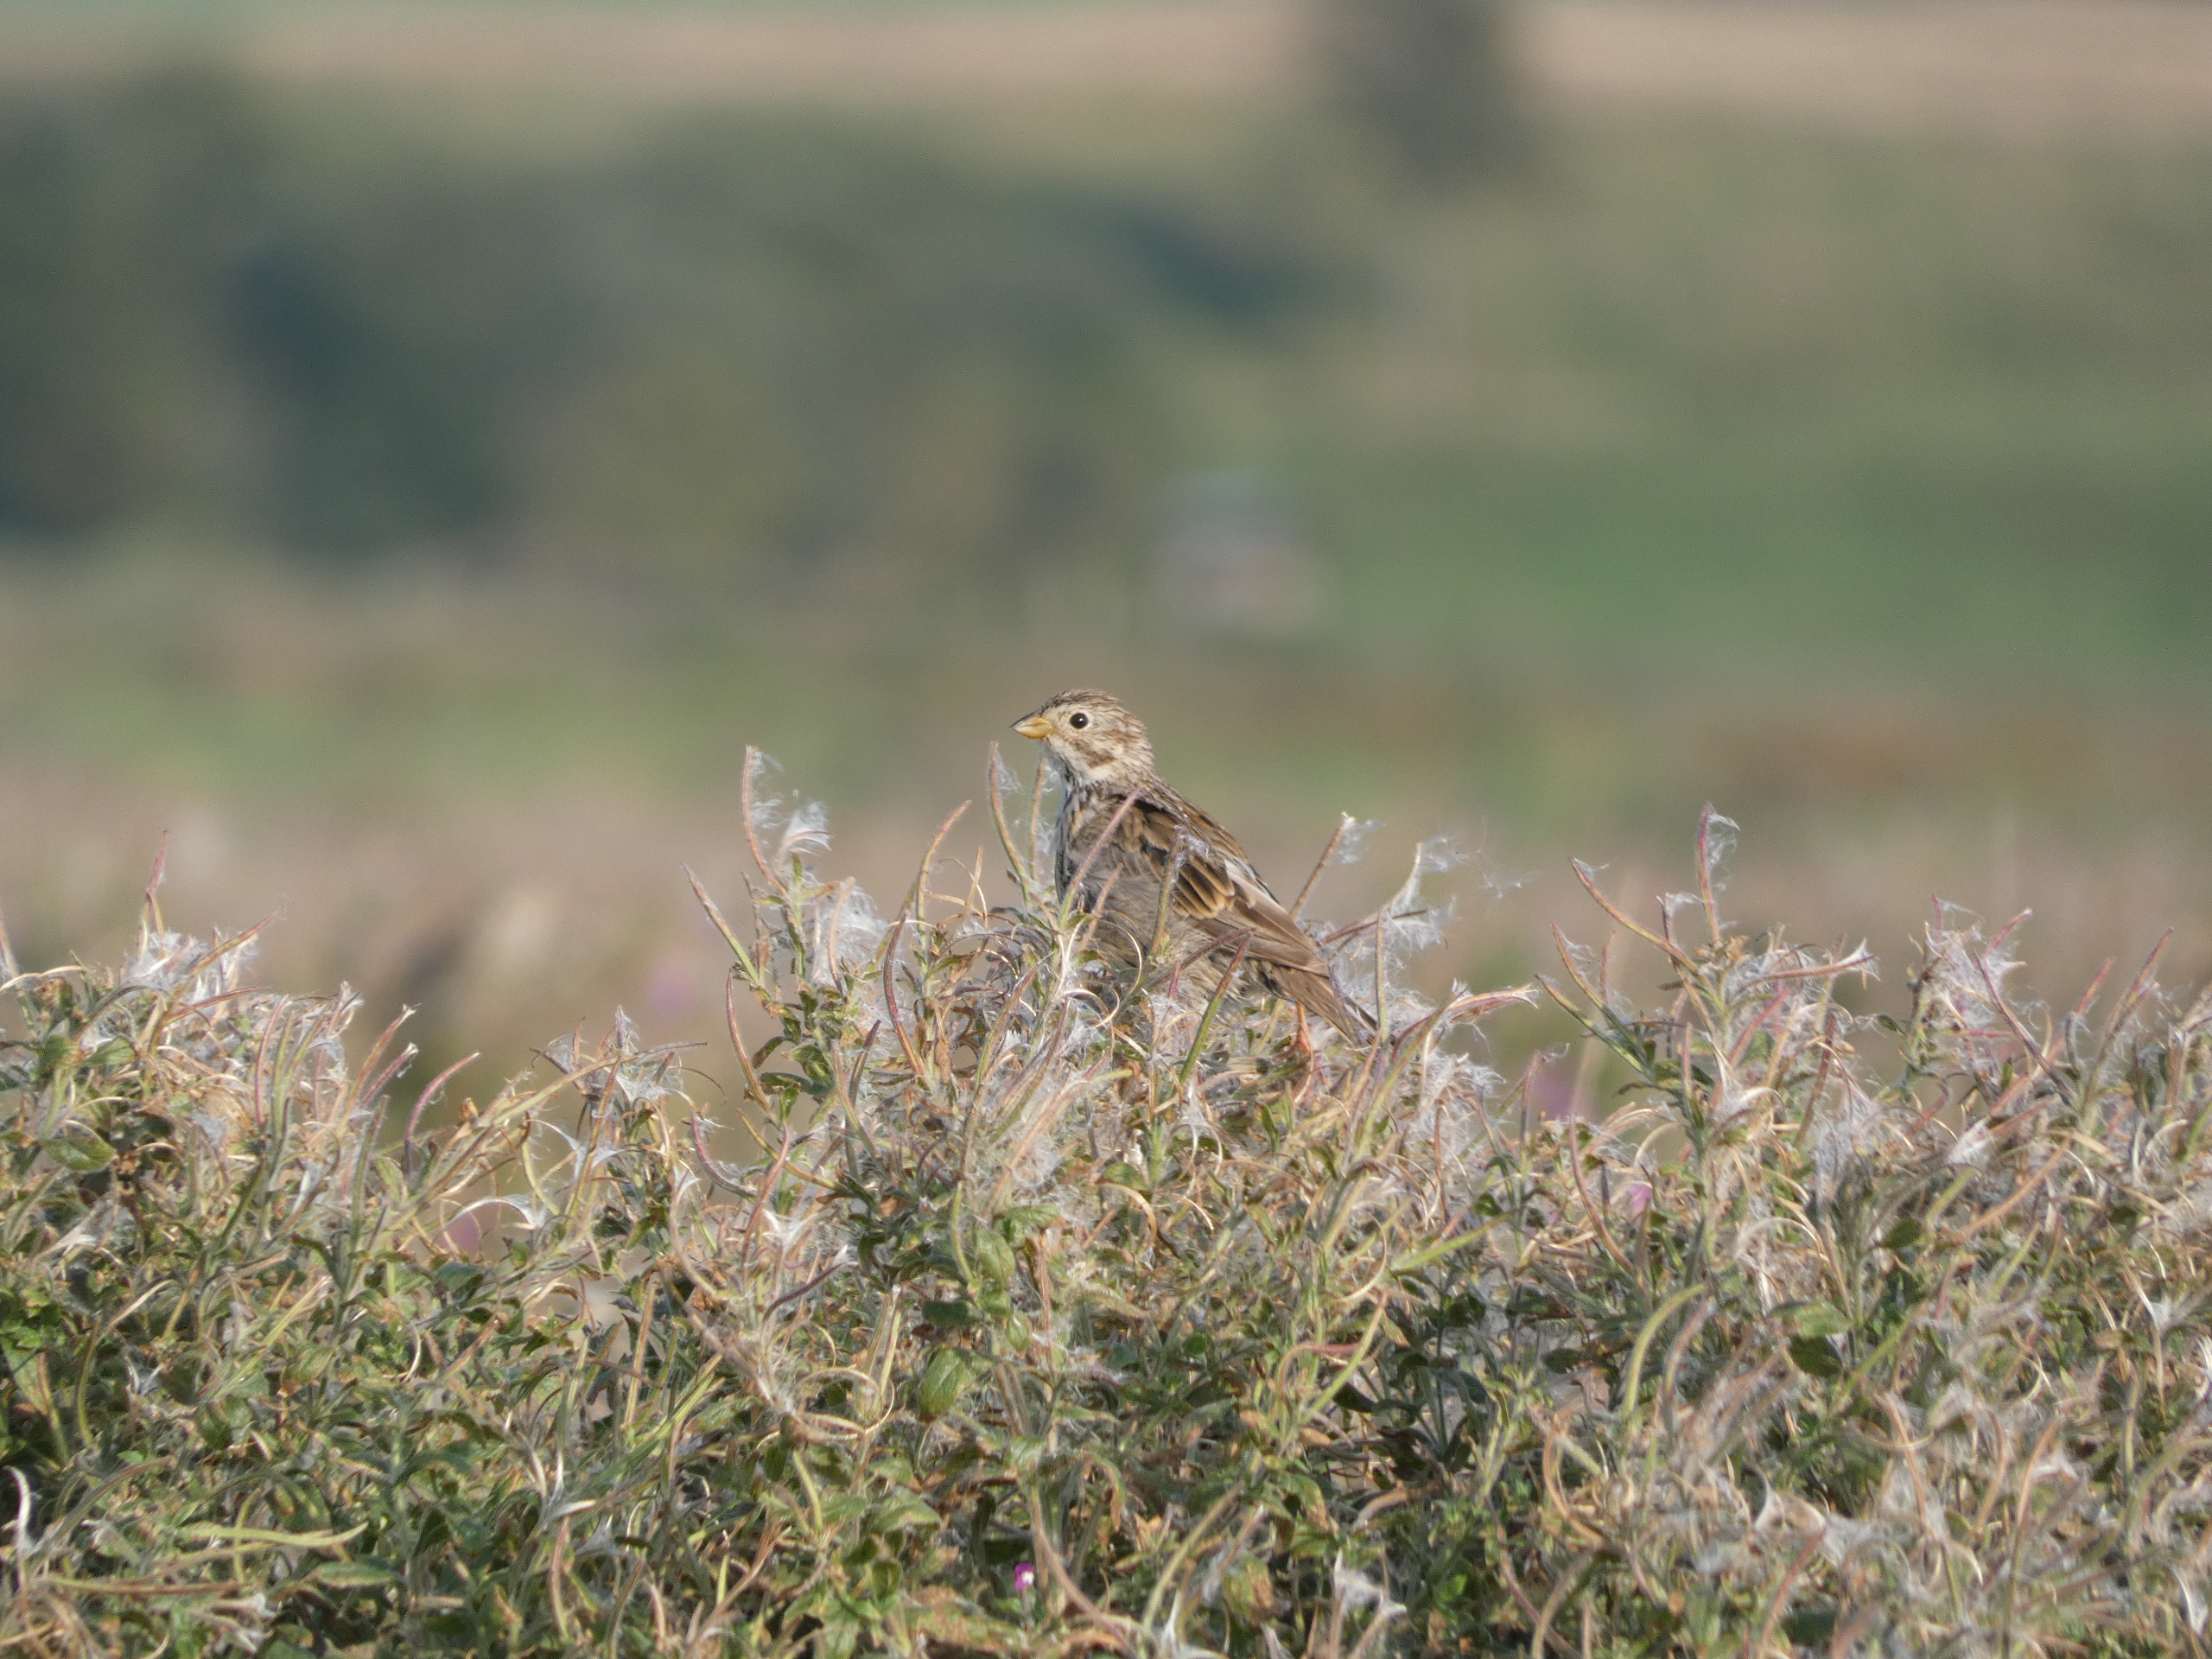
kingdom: Animalia
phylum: Chordata
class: Aves
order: Passeriformes
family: Emberizidae
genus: Emberiza
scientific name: Emberiza calandra
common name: Bomlærke
